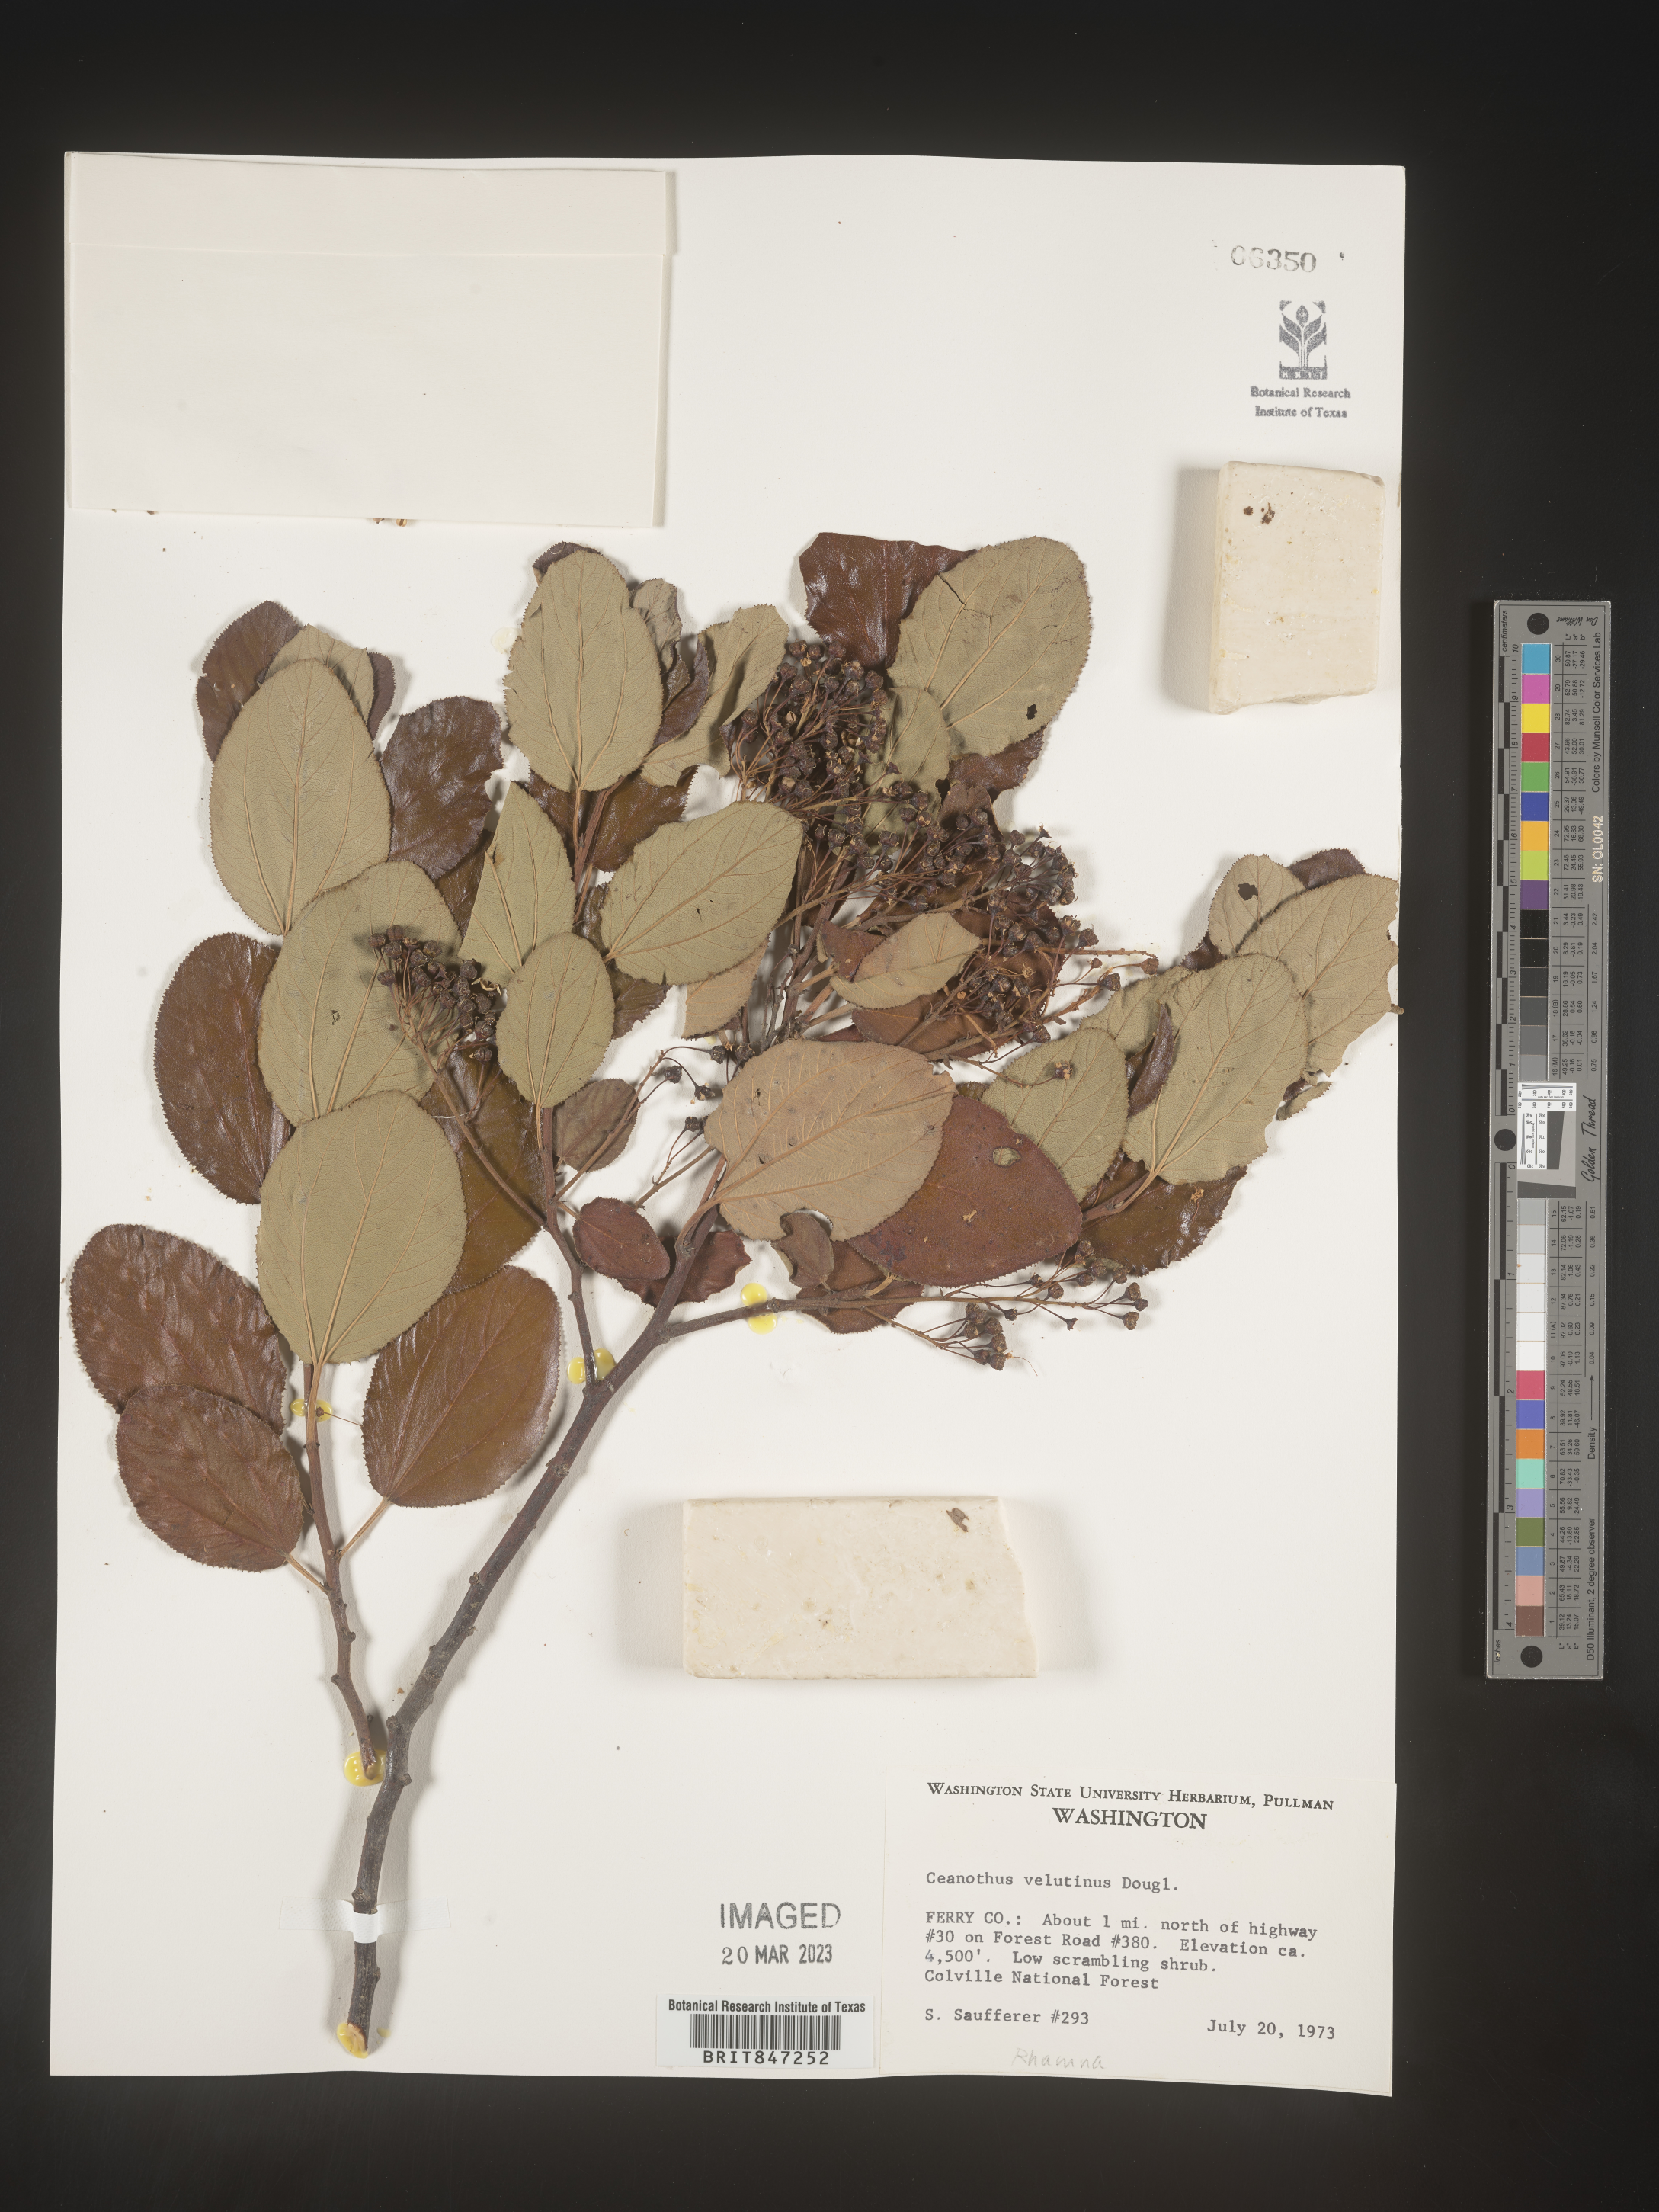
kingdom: Plantae
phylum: Tracheophyta
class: Magnoliopsida
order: Rosales
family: Rhamnaceae
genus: Ceanothus
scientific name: Ceanothus velutinus
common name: Snowbrush
